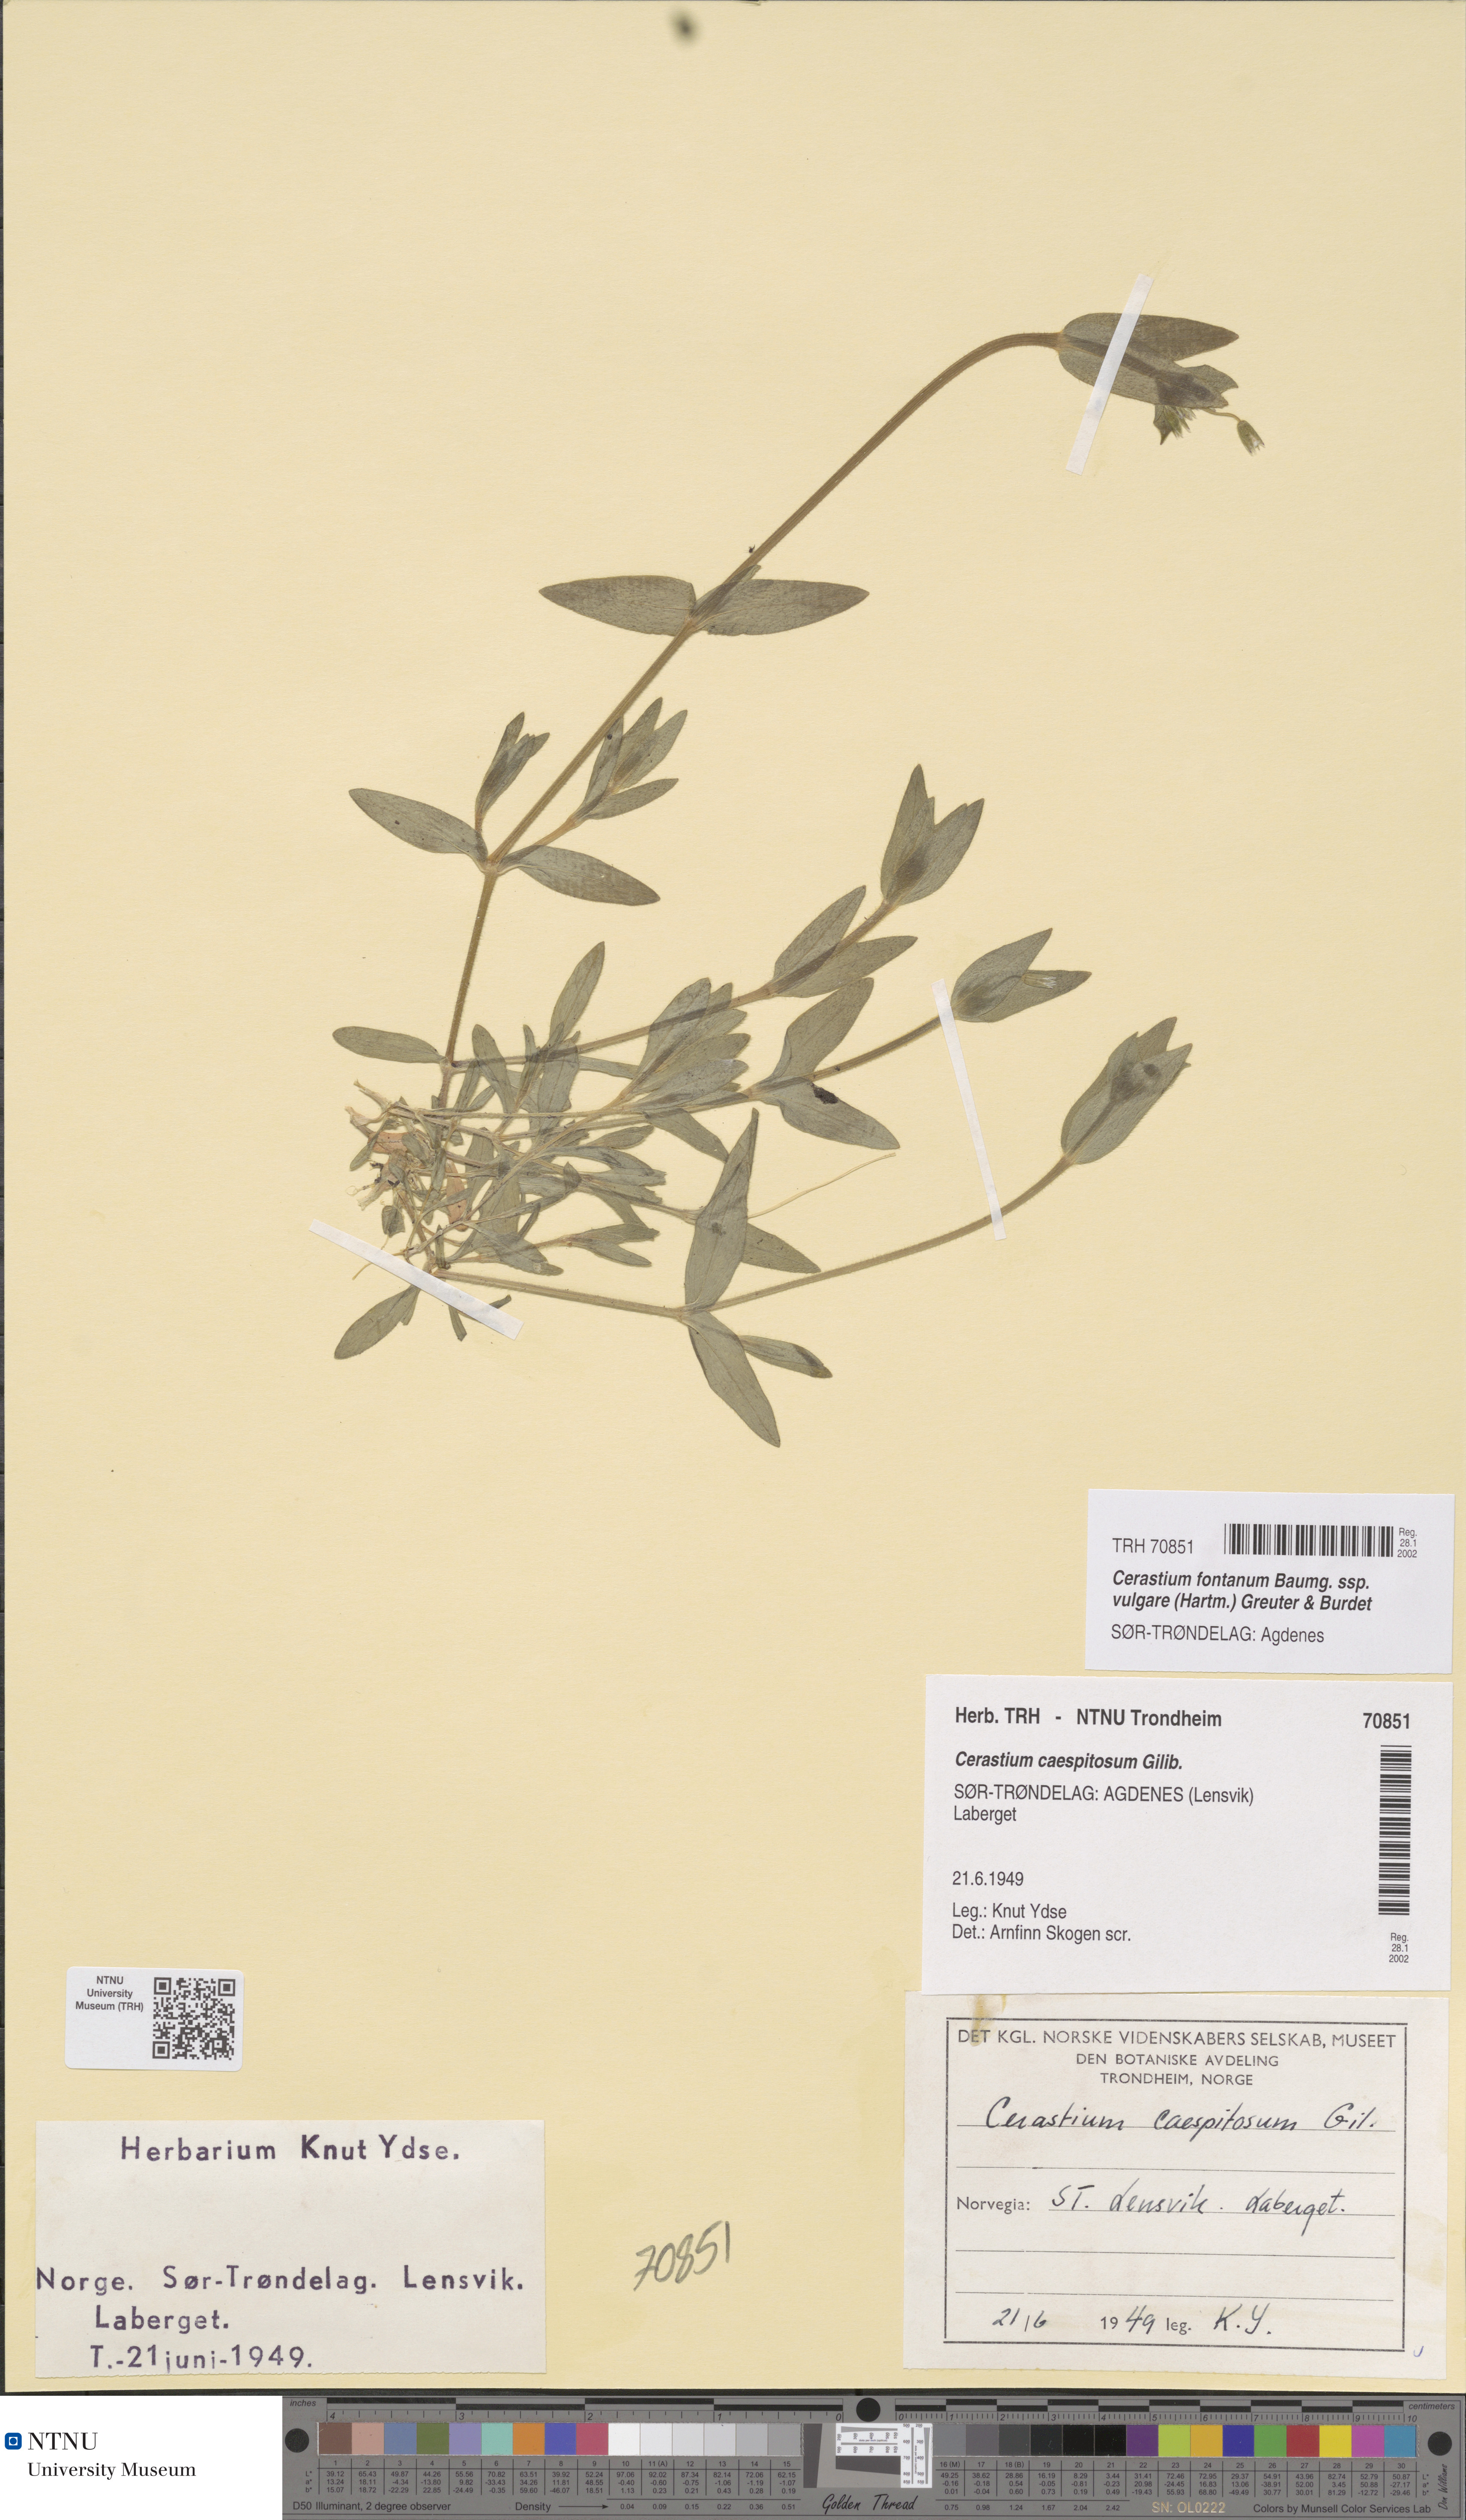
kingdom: Plantae
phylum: Tracheophyta
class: Magnoliopsida
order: Caryophyllales
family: Caryophyllaceae
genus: Cerastium
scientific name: Cerastium holosteoides
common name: Big chickweed
